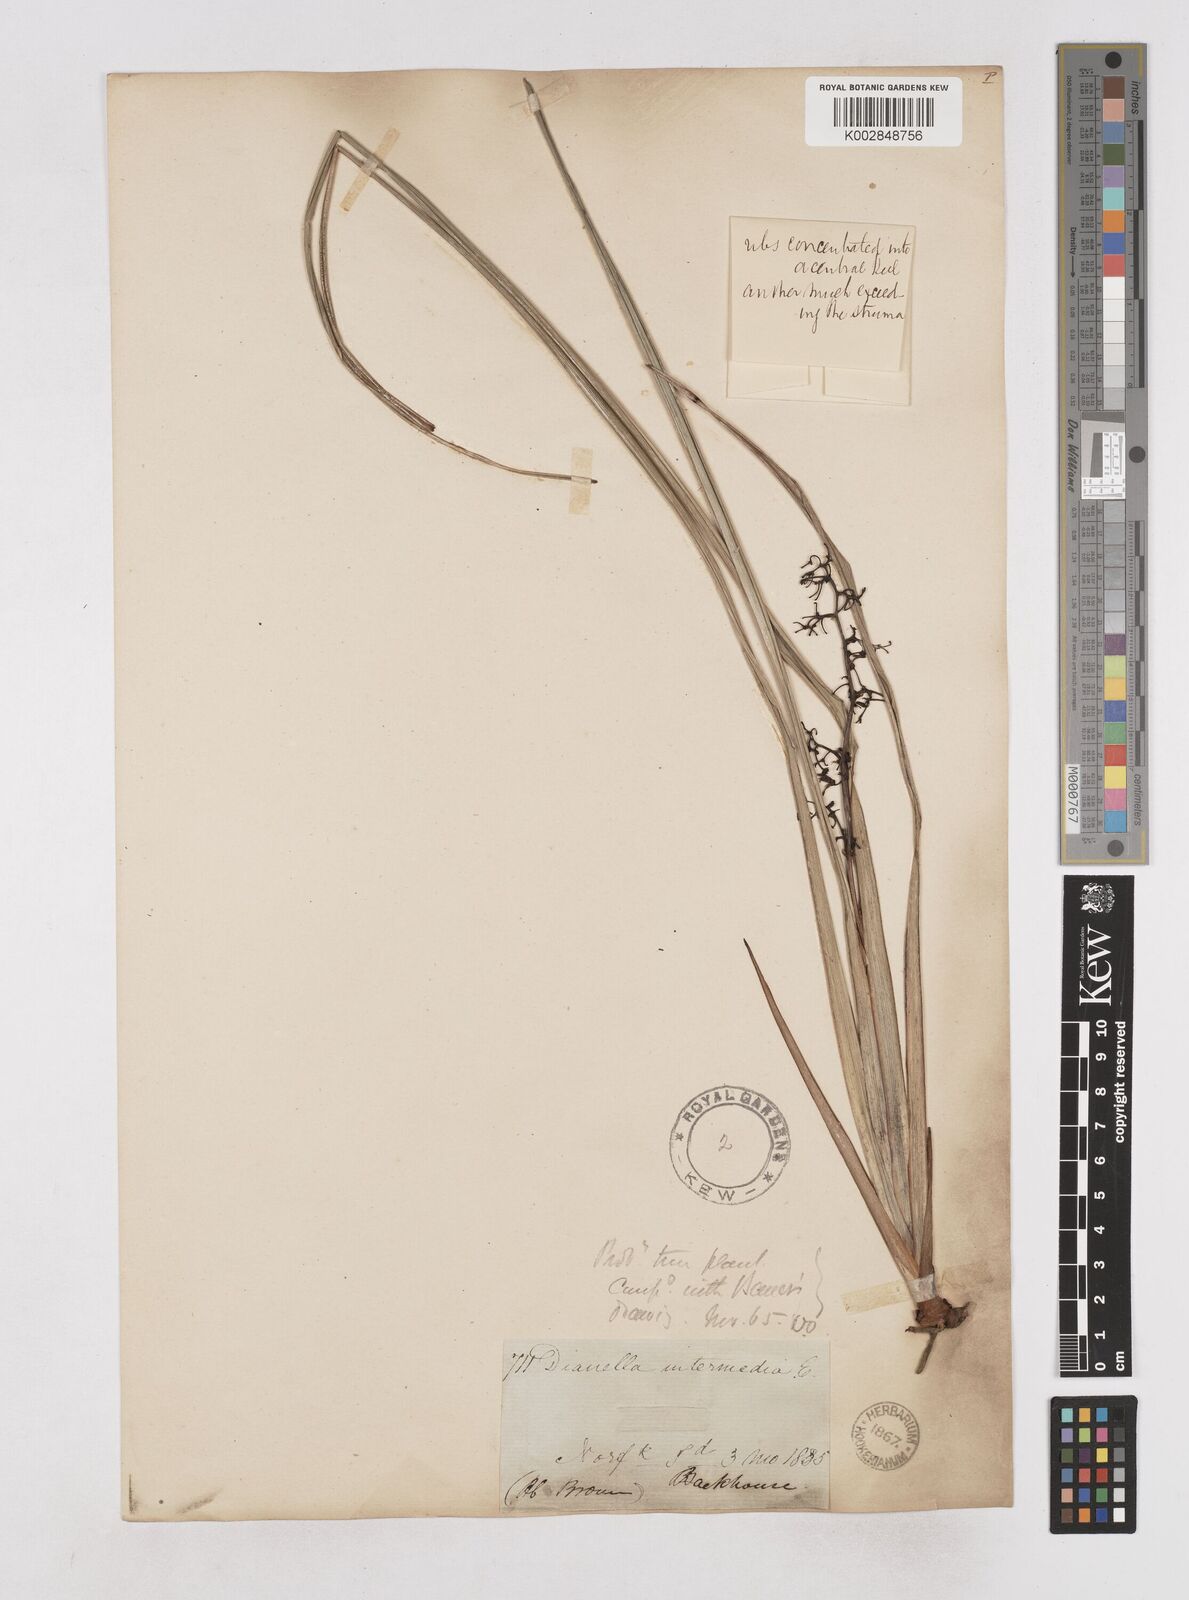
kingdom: Plantae
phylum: Tracheophyta
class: Liliopsida
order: Asparagales
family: Asphodelaceae
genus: Dianella
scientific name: Dianella intermedia
